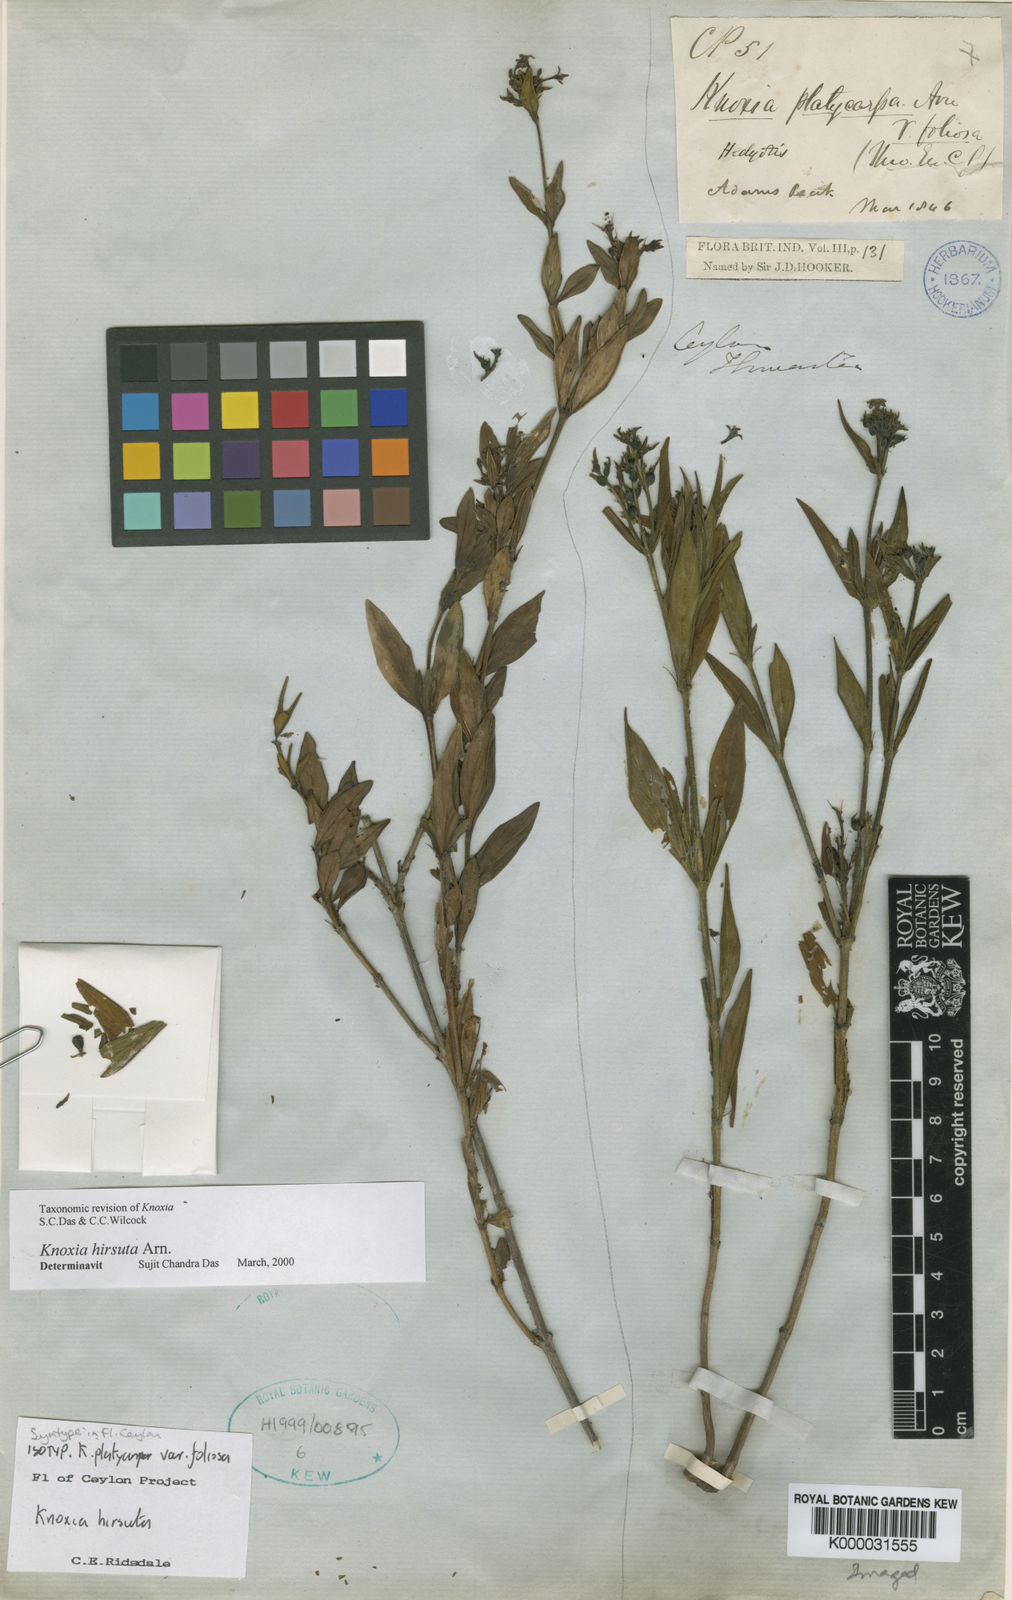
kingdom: Plantae
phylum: Tracheophyta
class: Magnoliopsida
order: Gentianales
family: Rubiaceae
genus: Knoxia
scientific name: Knoxia platycarpa
